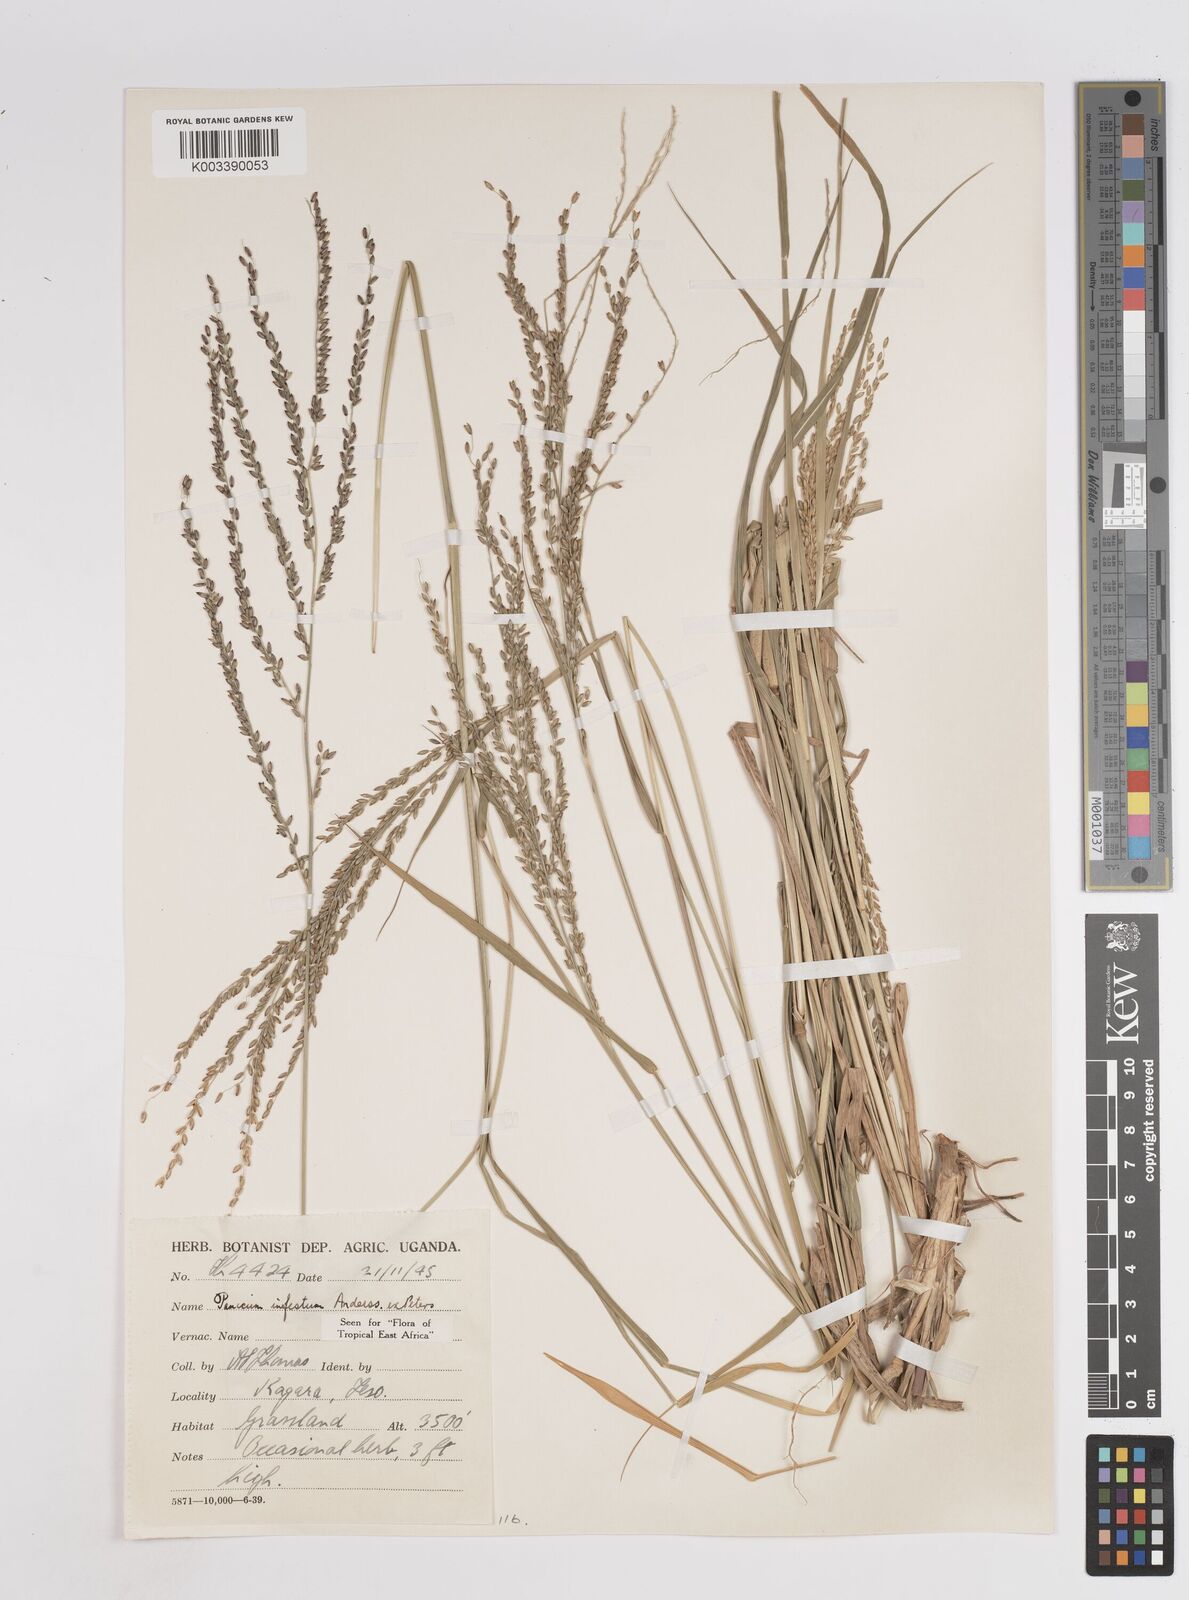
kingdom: Plantae
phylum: Tracheophyta
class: Liliopsida
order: Poales
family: Poaceae
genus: Megathyrsus
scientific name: Megathyrsus infestus
